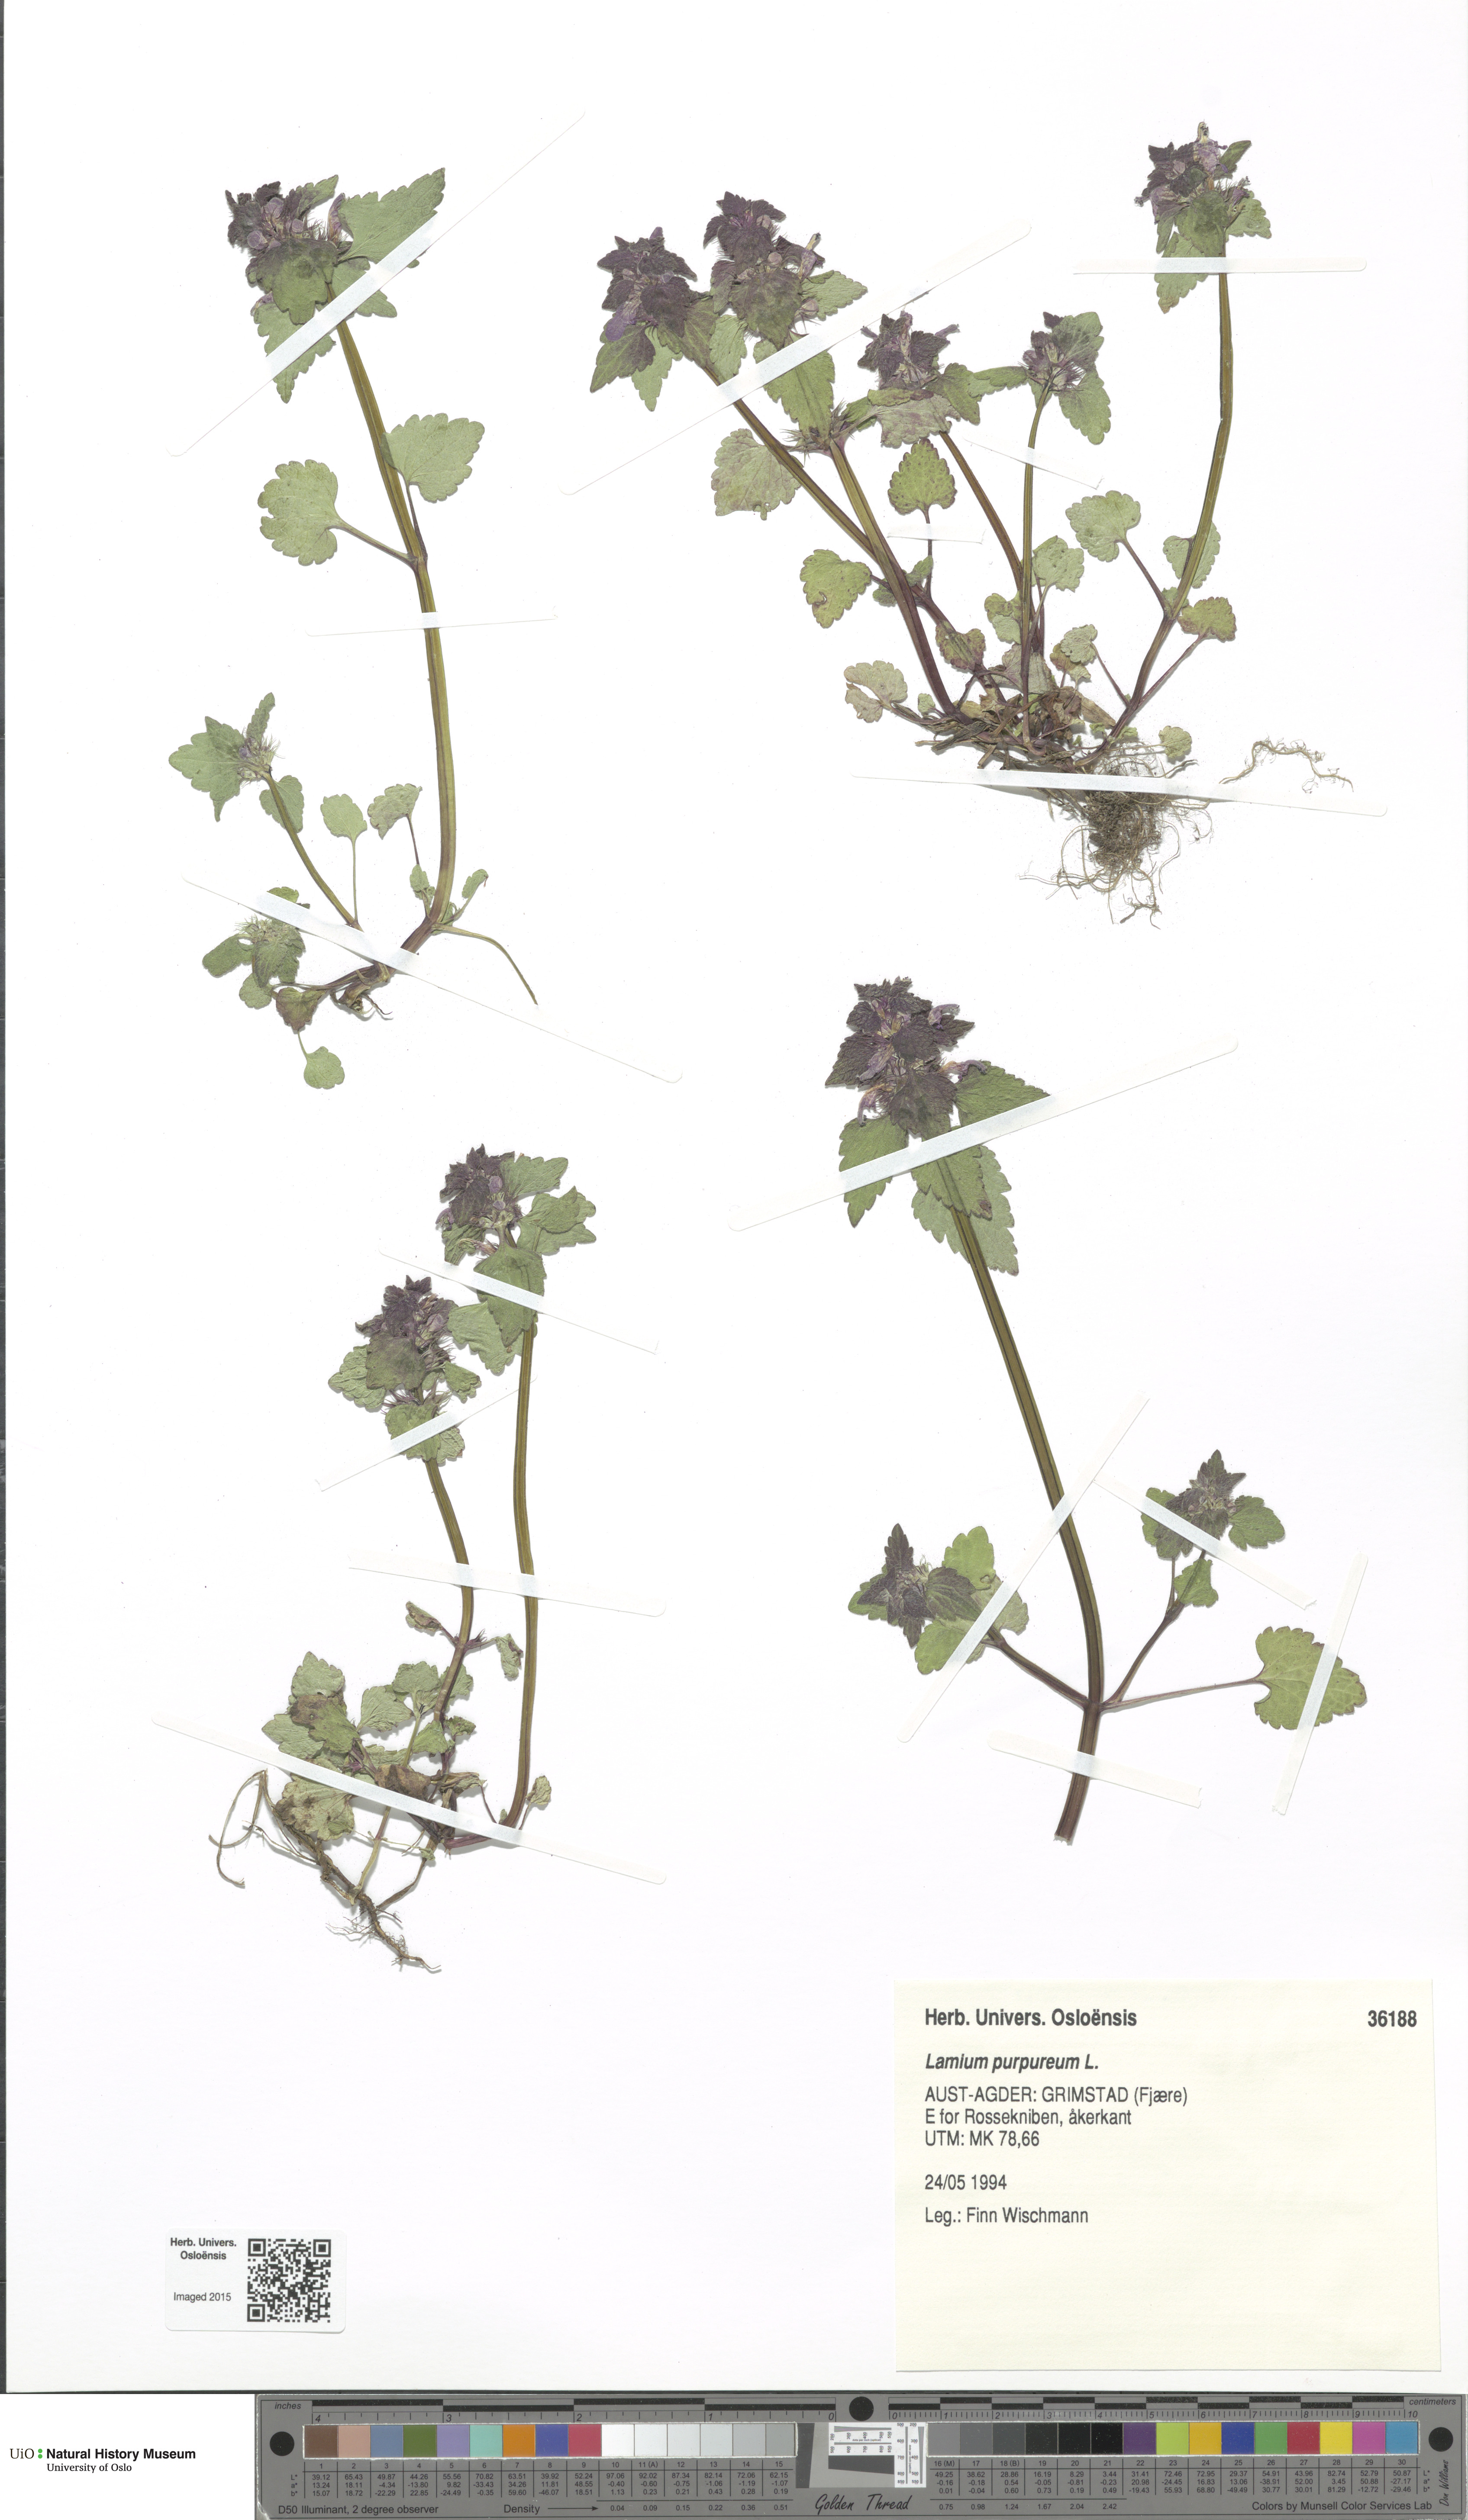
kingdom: Plantae
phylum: Tracheophyta
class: Magnoliopsida
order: Lamiales
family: Lamiaceae
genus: Lamium
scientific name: Lamium purpureum
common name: Red dead-nettle
